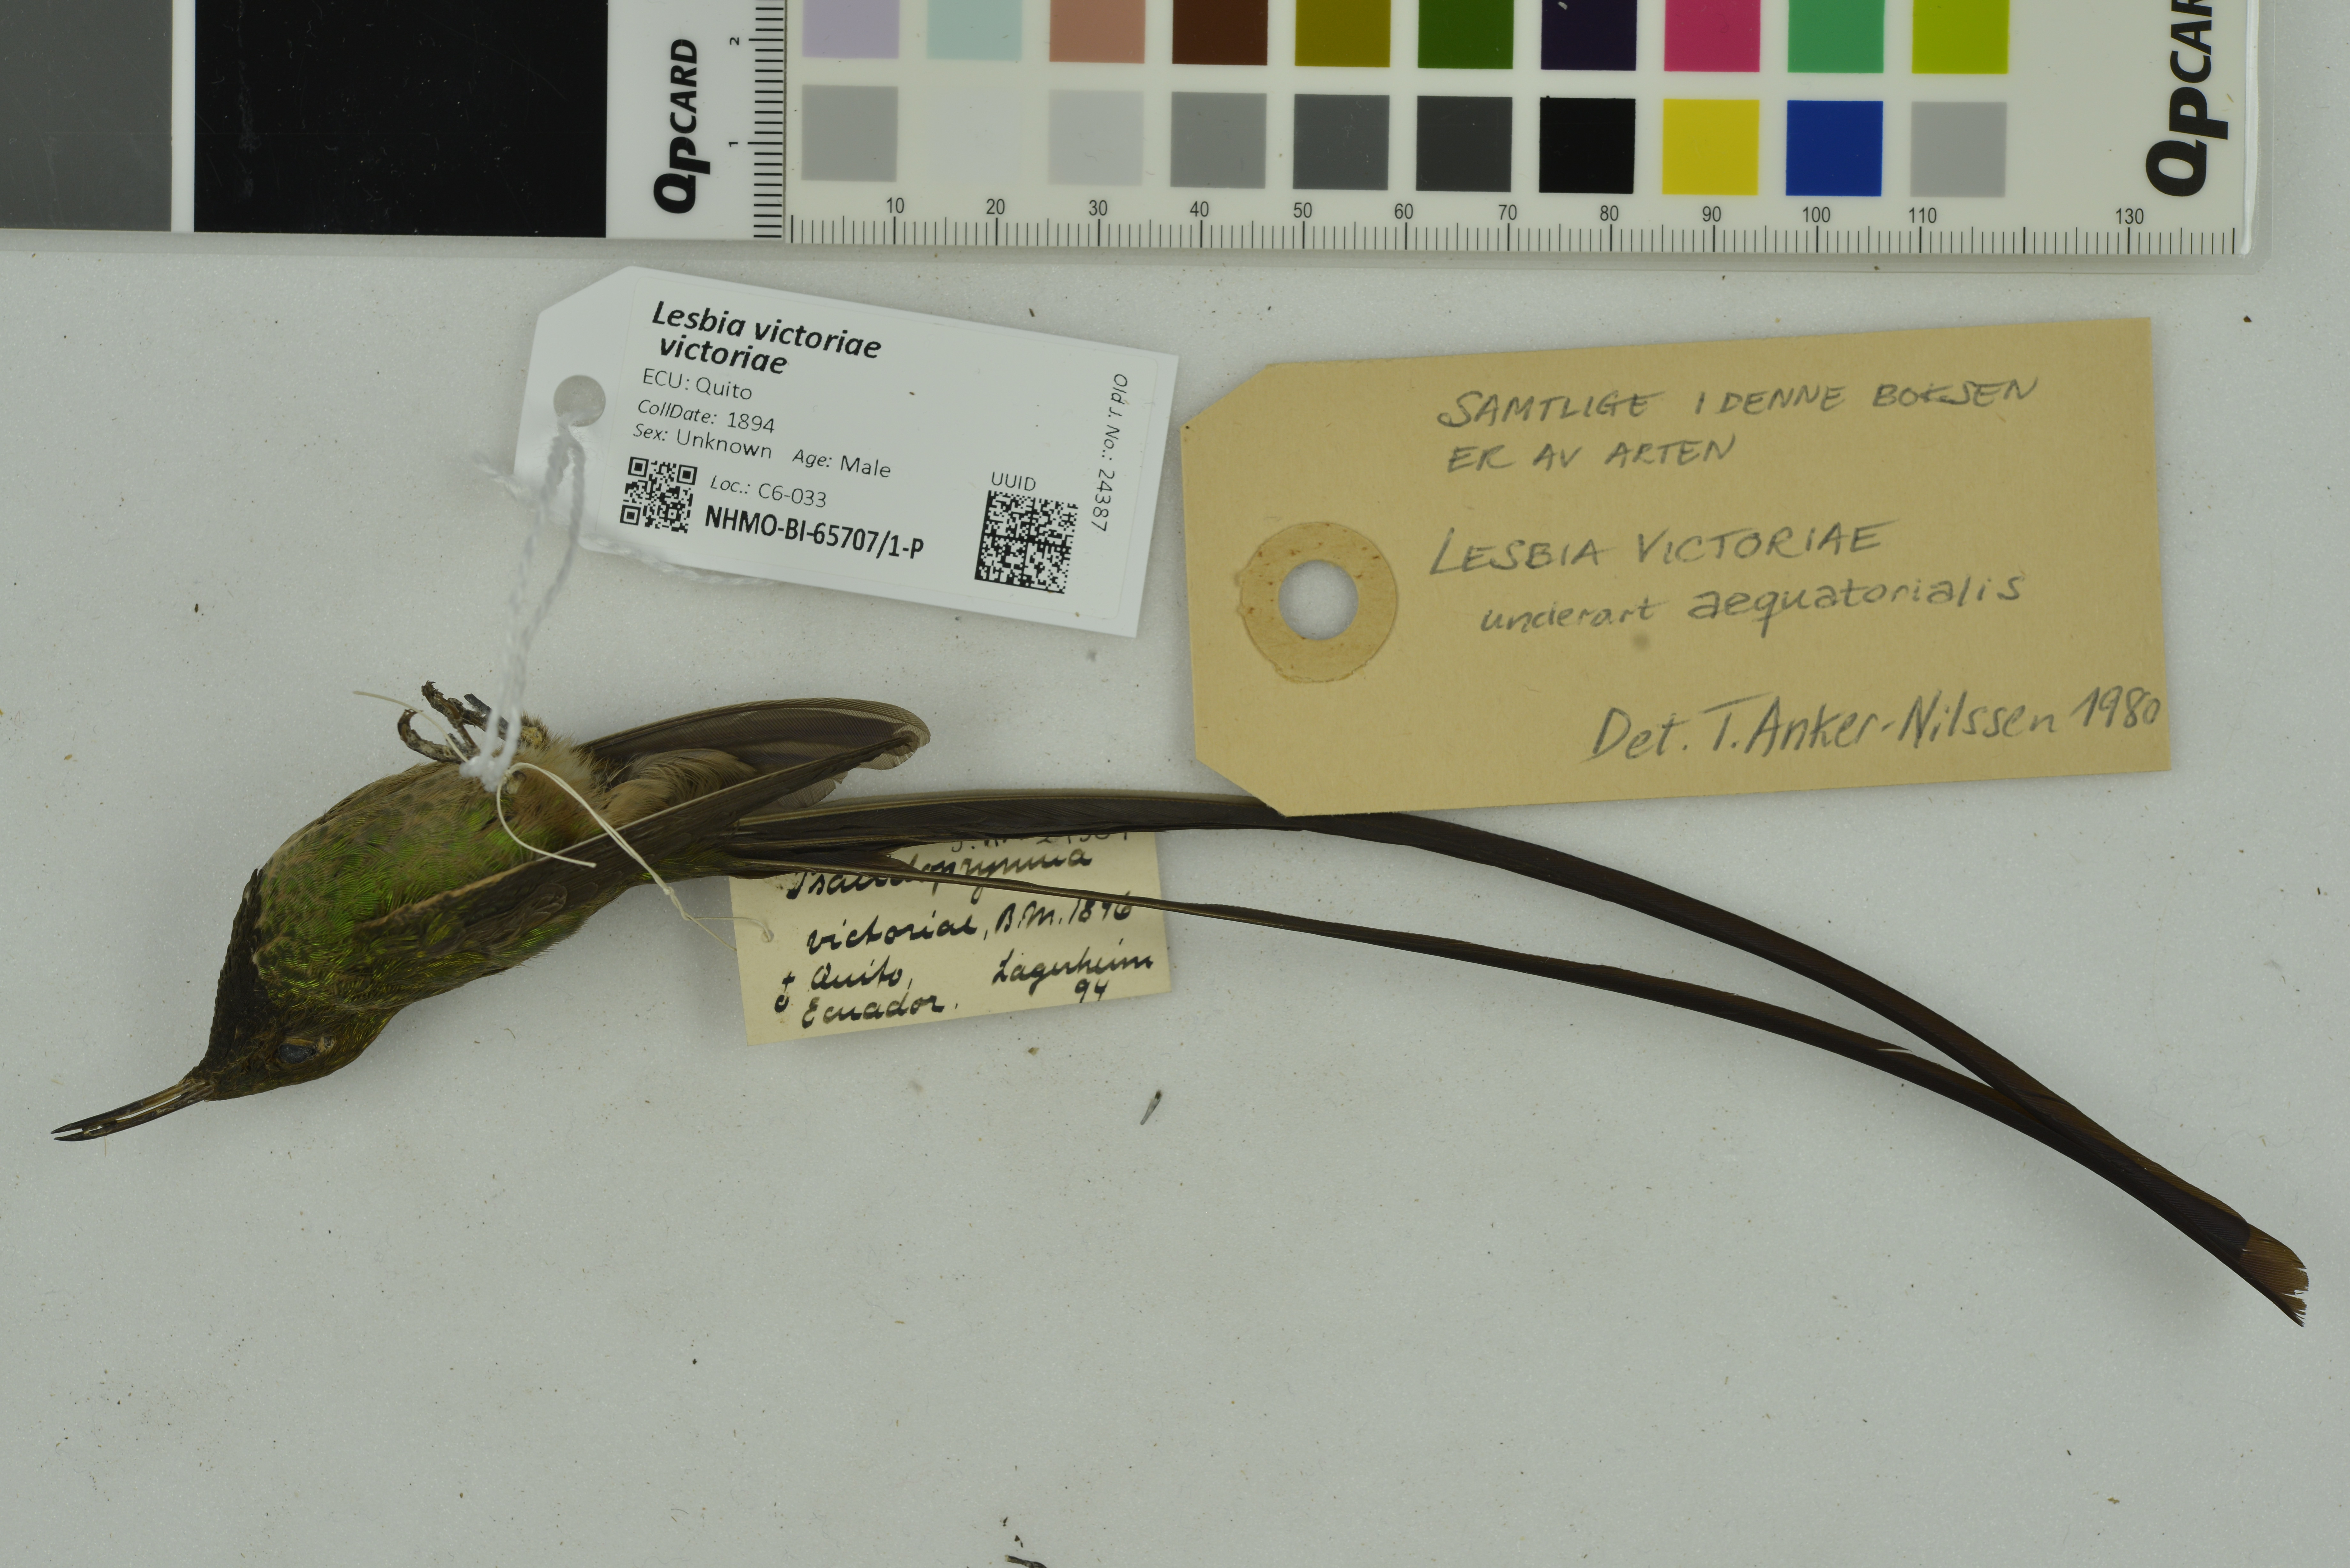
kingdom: Animalia
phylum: Chordata
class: Aves
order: Apodiformes
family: Trochilidae
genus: Lesbia
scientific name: Lesbia victoriae
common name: Black-tailed trainbearer
